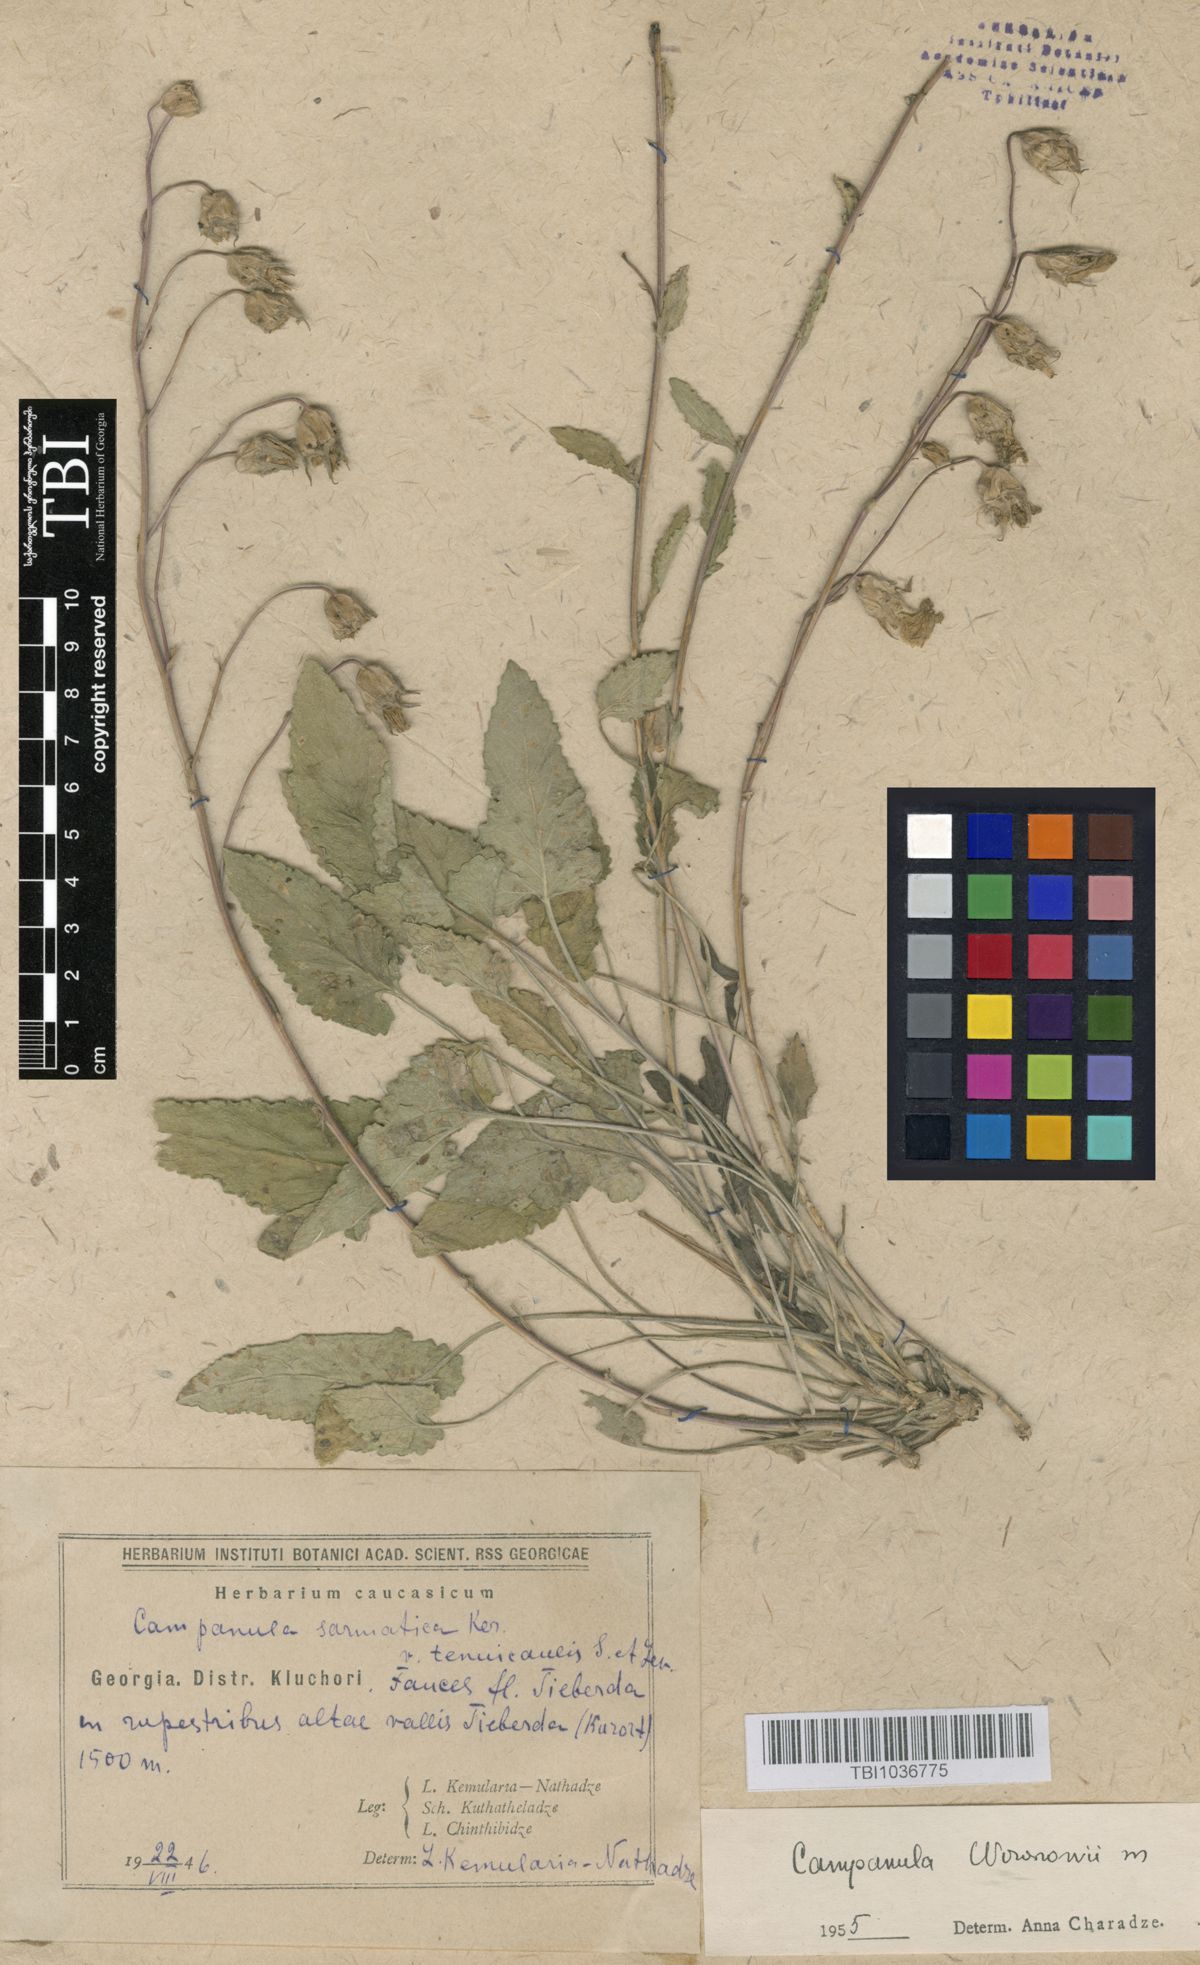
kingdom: Plantae
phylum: Tracheophyta
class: Magnoliopsida
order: Asterales
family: Campanulaceae
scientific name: Campanulaceae
